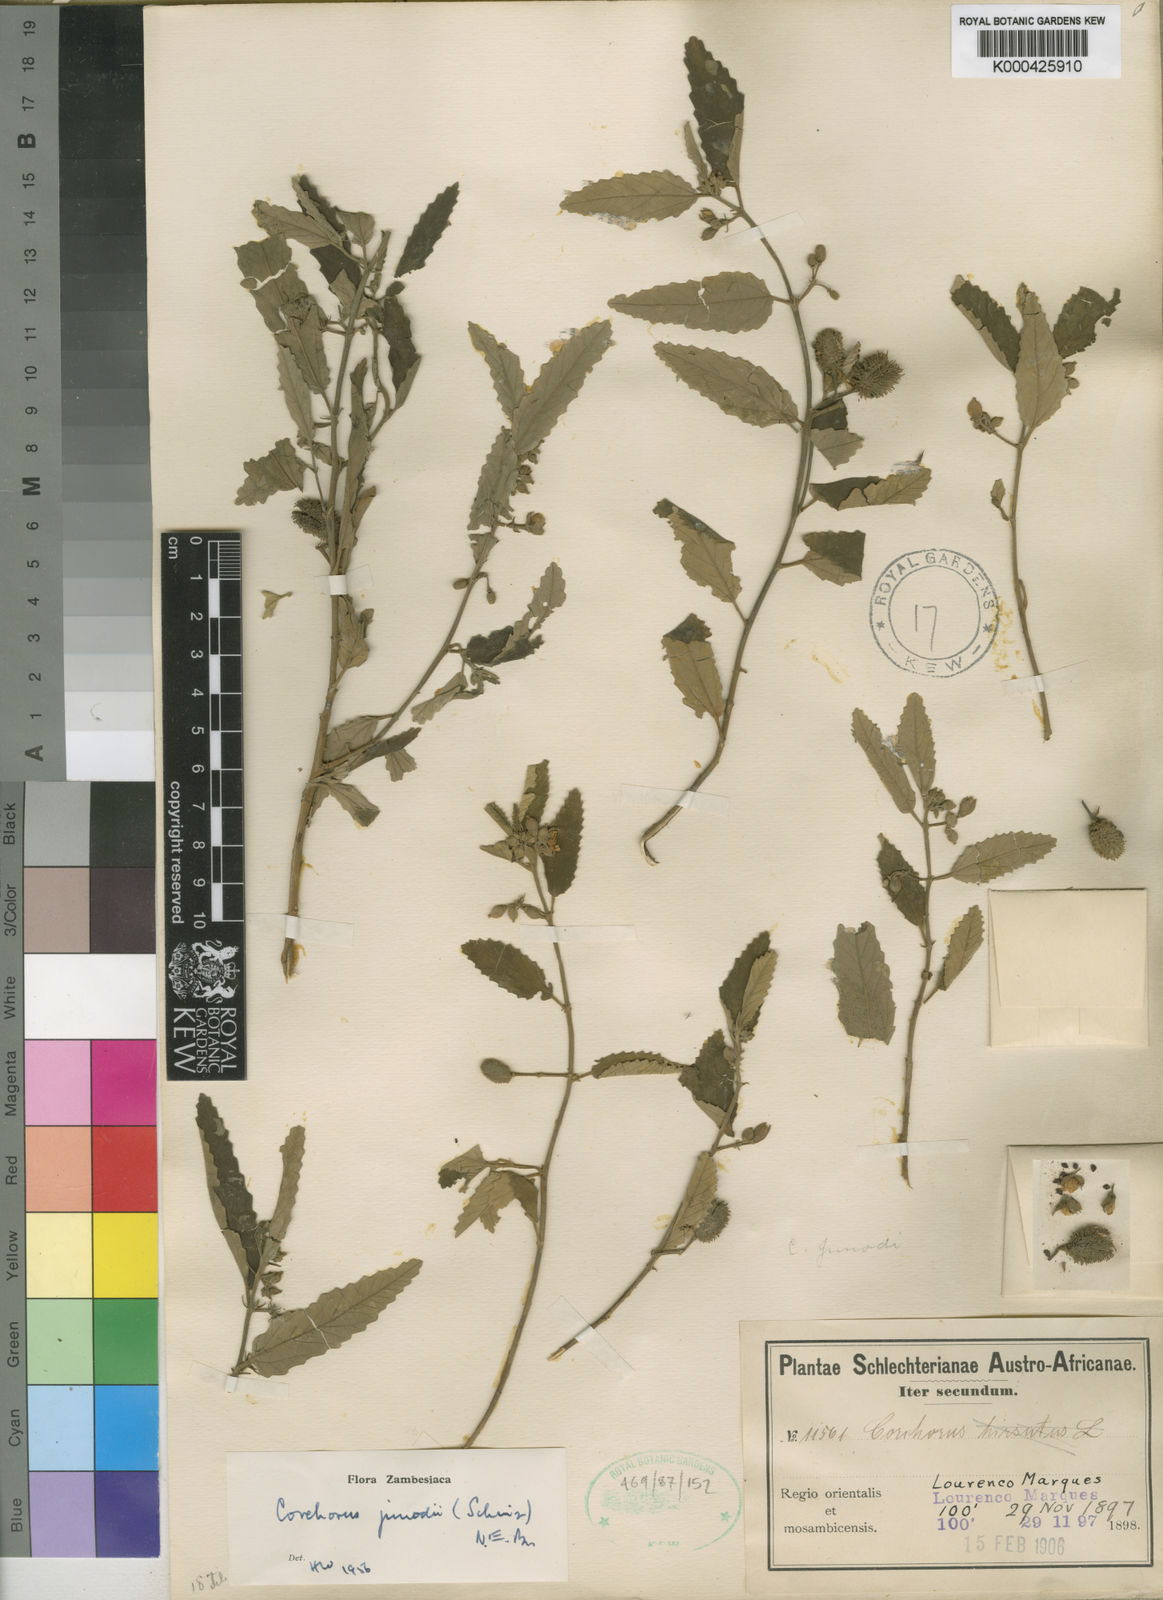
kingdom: Plantae
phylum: Tracheophyta
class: Magnoliopsida
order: Malvales
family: Malvaceae
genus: Corchorus
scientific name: Corchorus junodii
